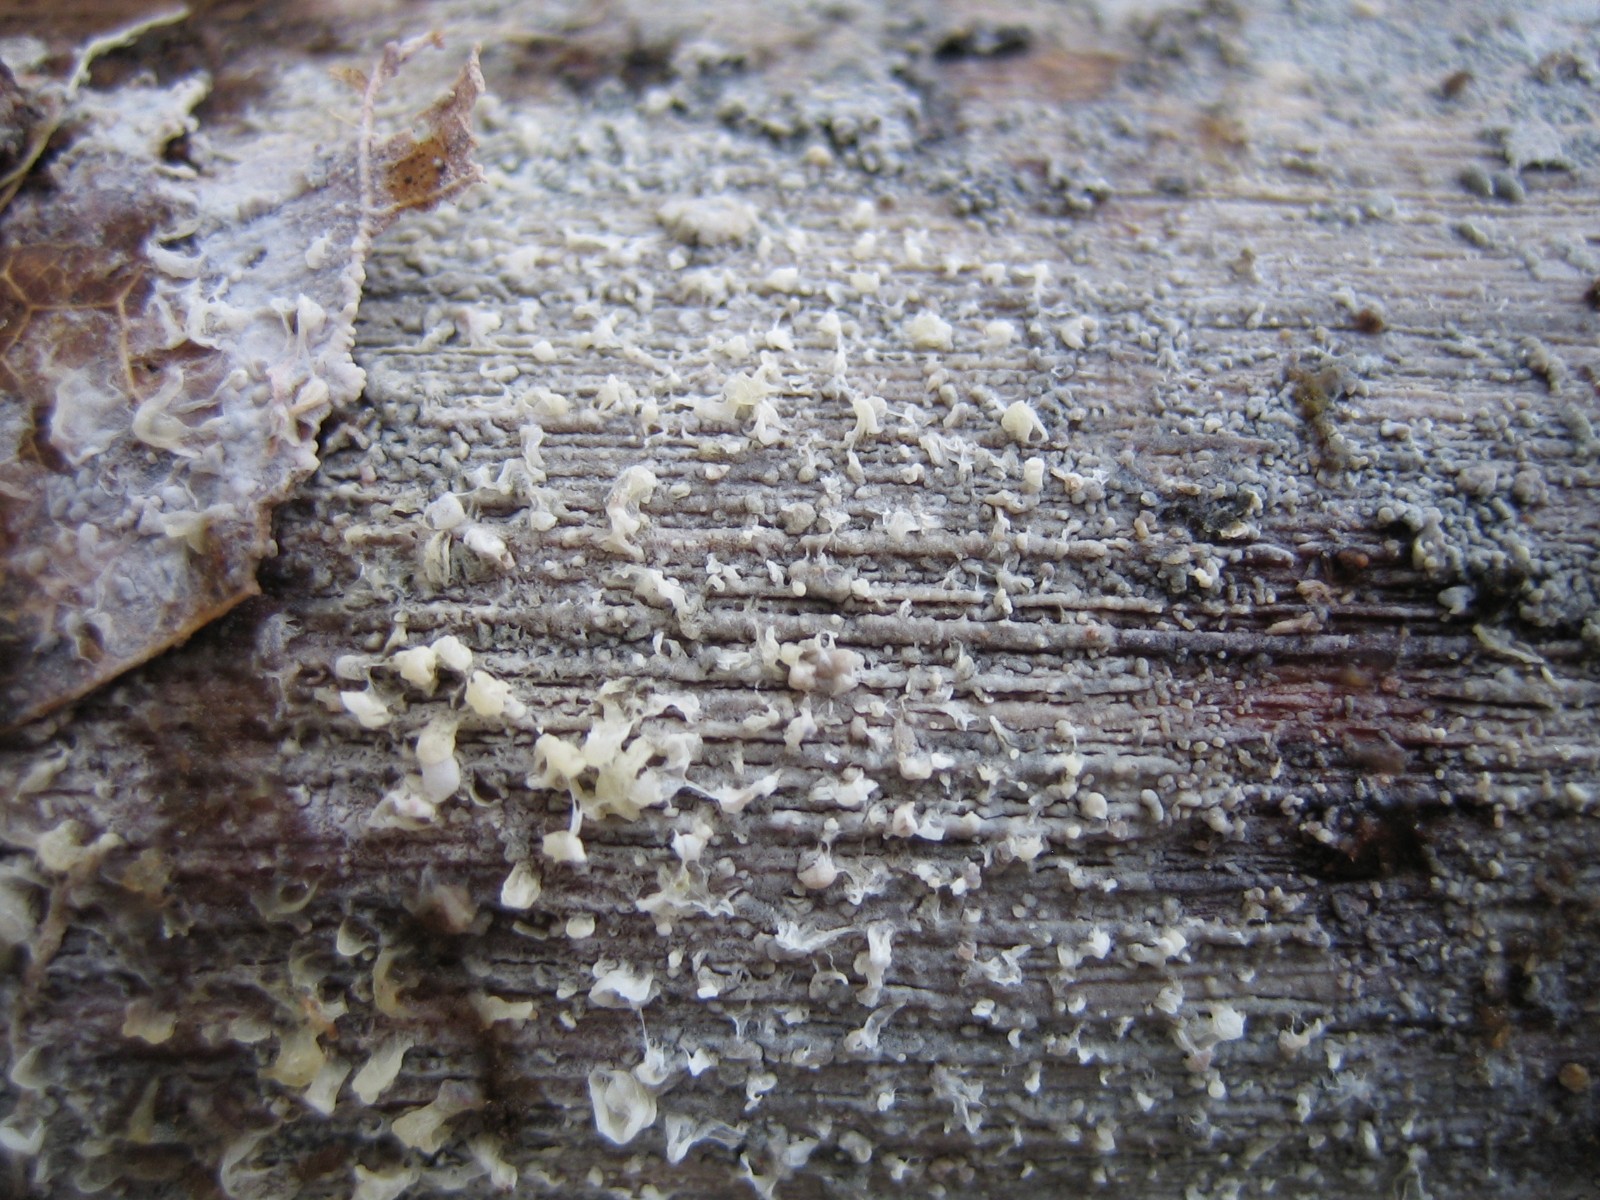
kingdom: Fungi
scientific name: Fungi
